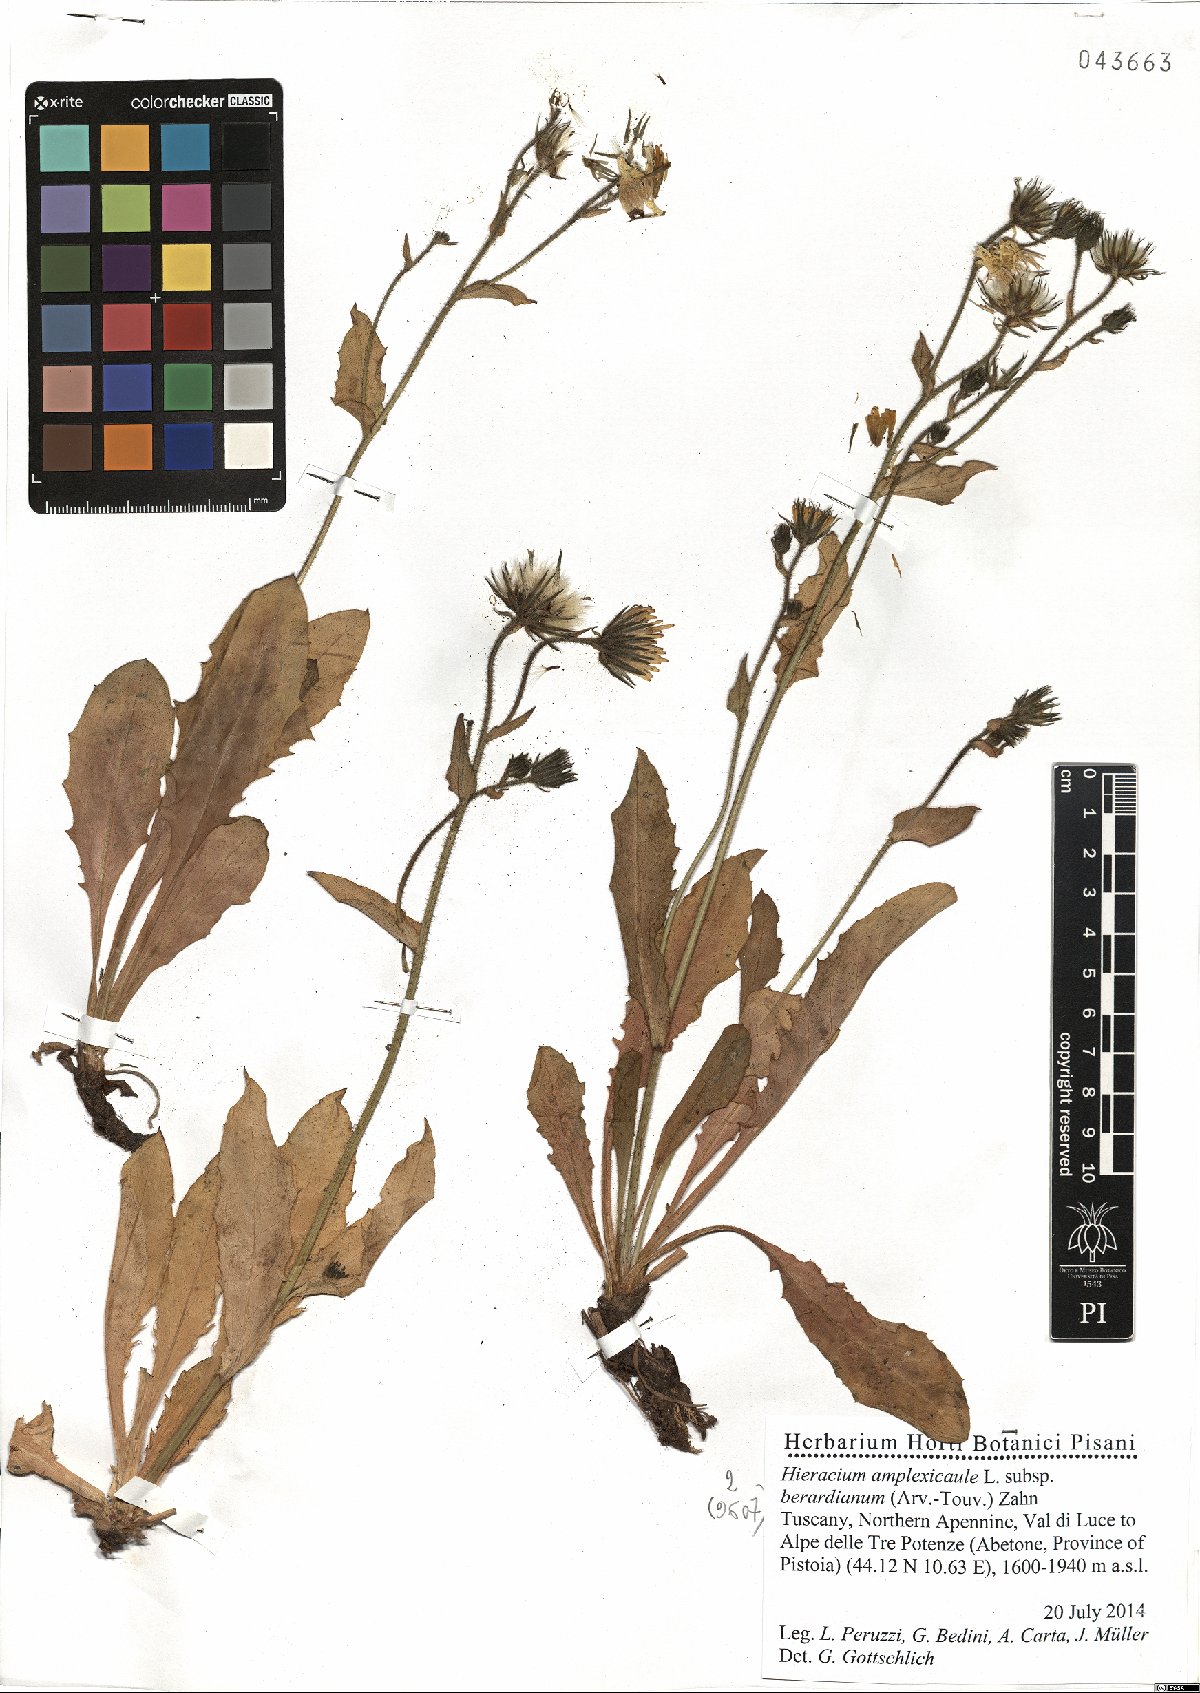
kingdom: Plantae
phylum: Tracheophyta
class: Magnoliopsida
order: Asterales
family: Asteraceae
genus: Hieracium
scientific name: Hieracium amplexicaule
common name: Sticky hawkweed
